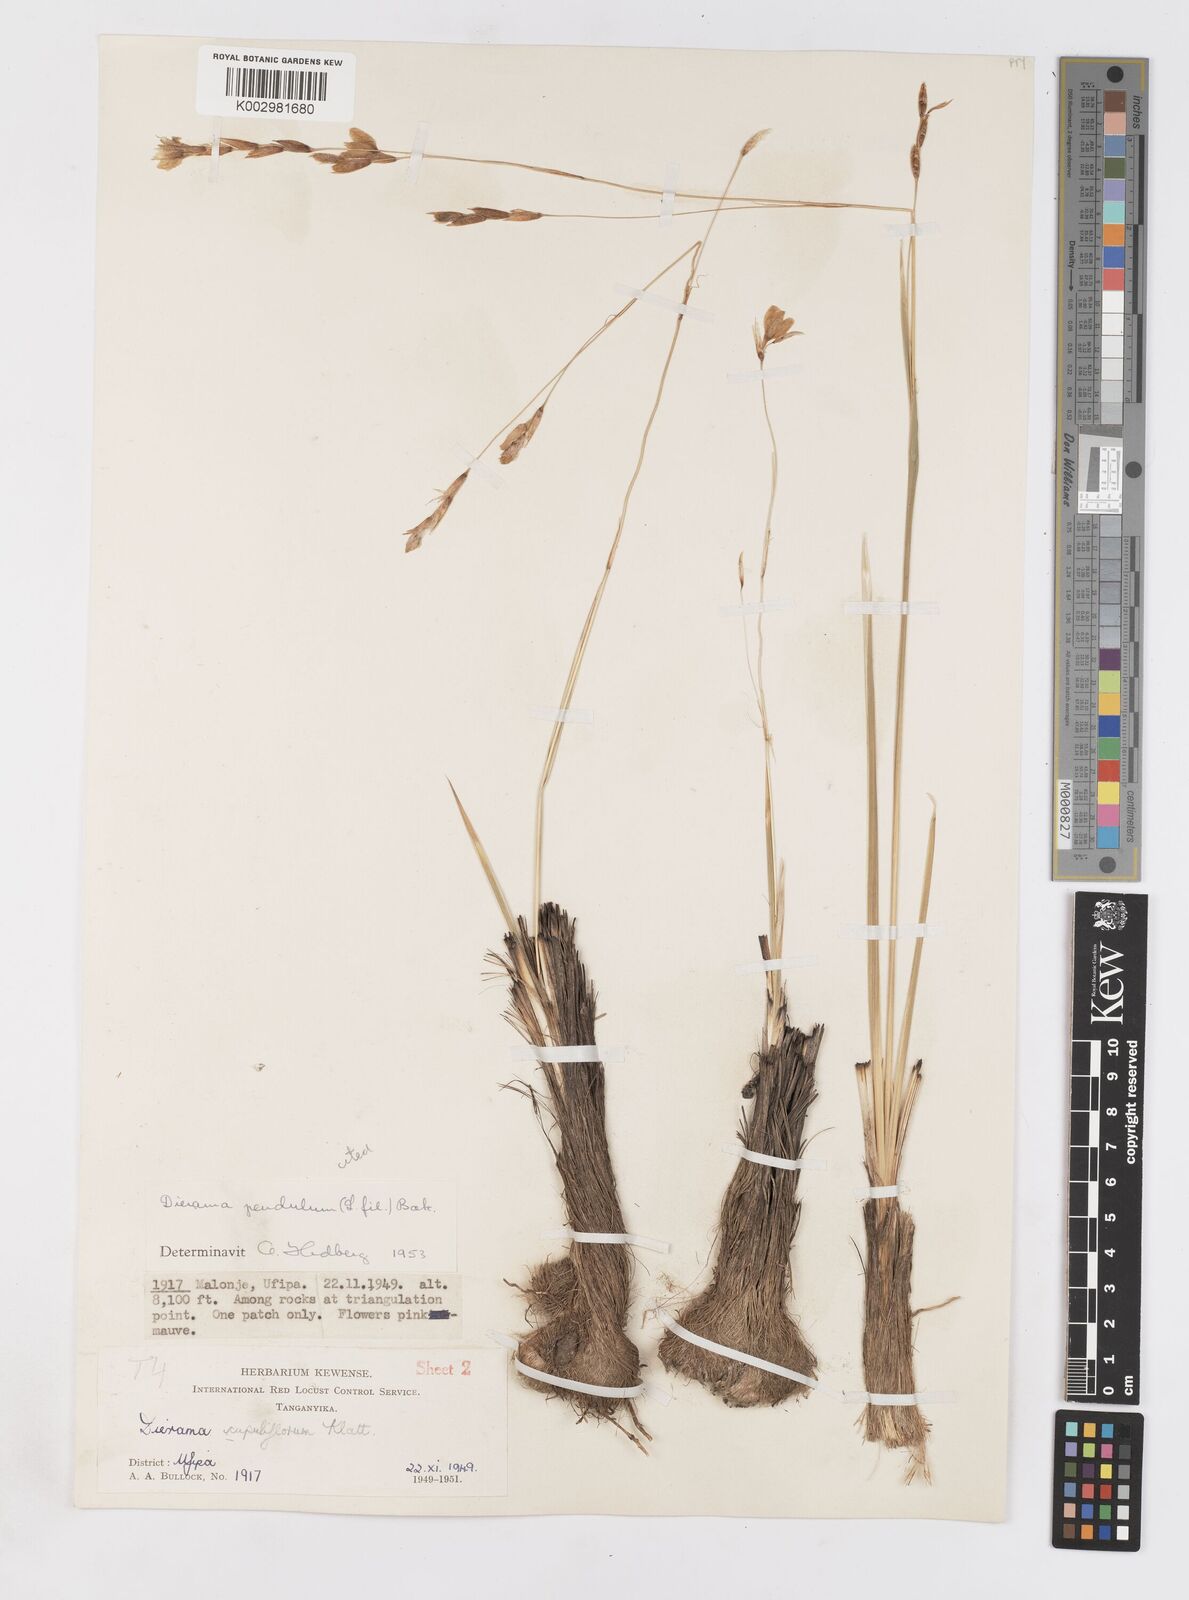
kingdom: Plantae
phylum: Tracheophyta
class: Liliopsida
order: Asparagales
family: Iridaceae
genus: Dierama
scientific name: Dierama parviflorum
